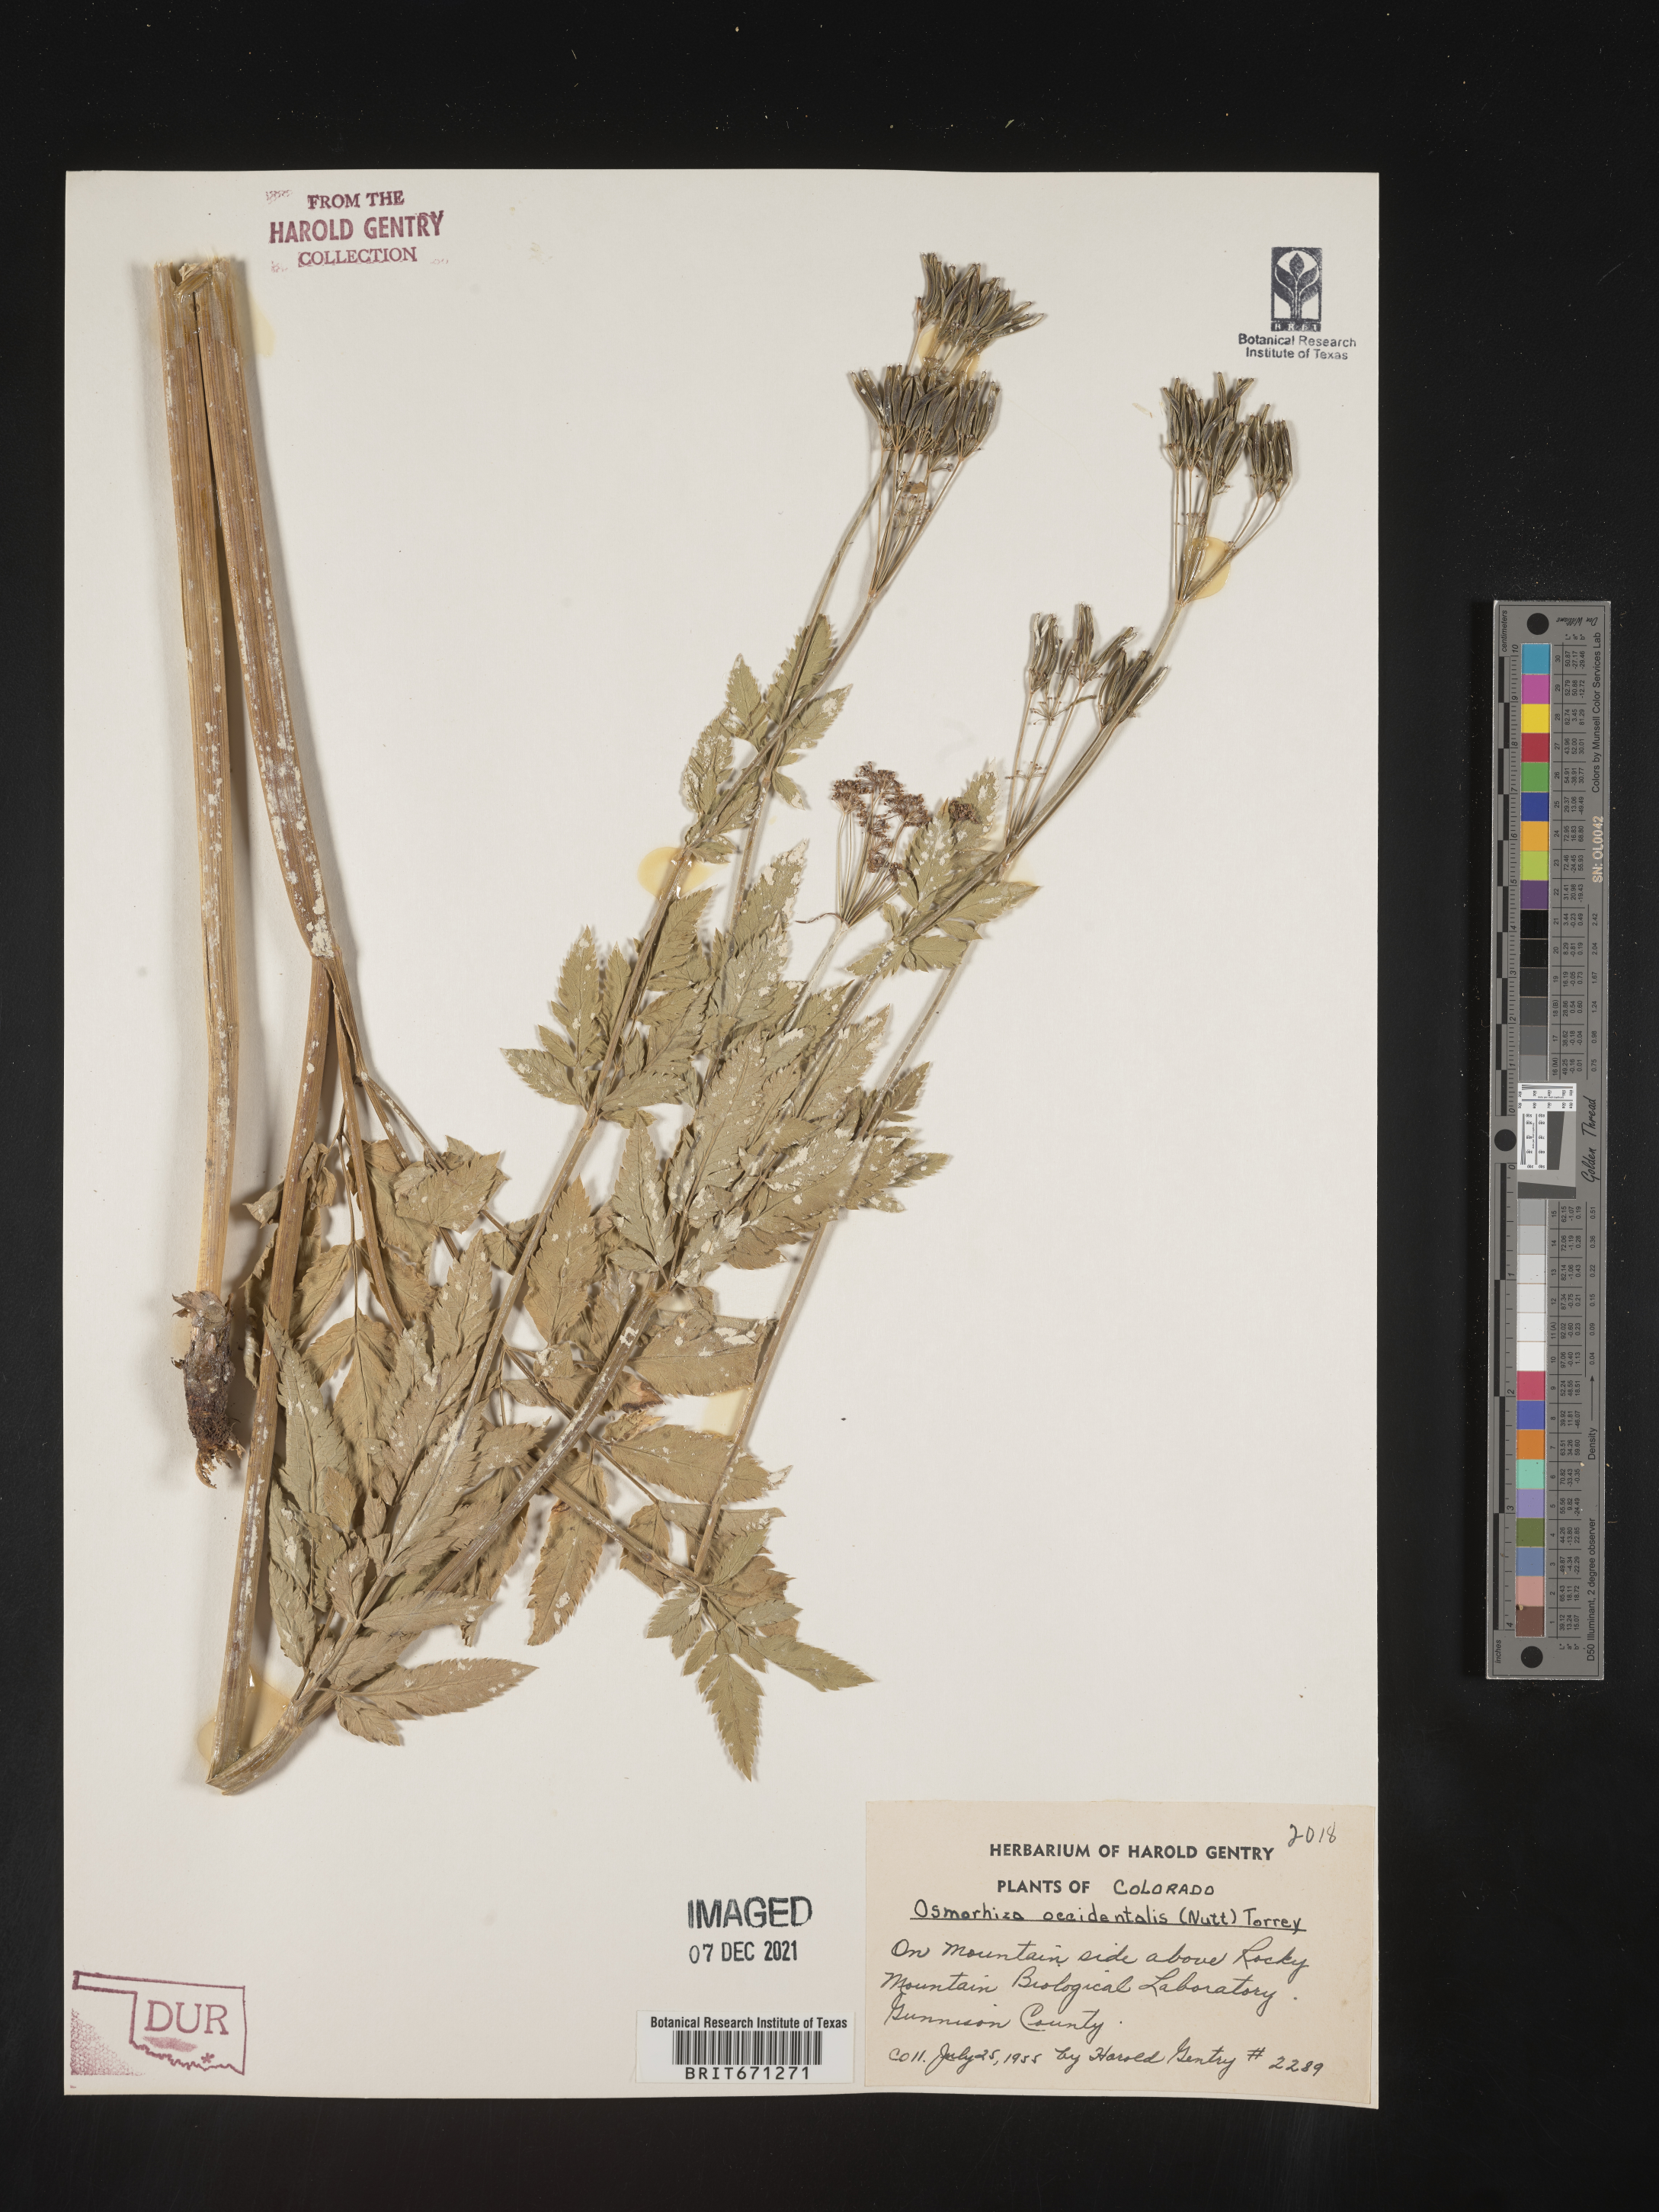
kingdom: Plantae
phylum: Tracheophyta
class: Magnoliopsida
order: Apiales
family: Apiaceae
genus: Osmorhiza
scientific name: Osmorhiza occidentalis
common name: Western sweet cicely
